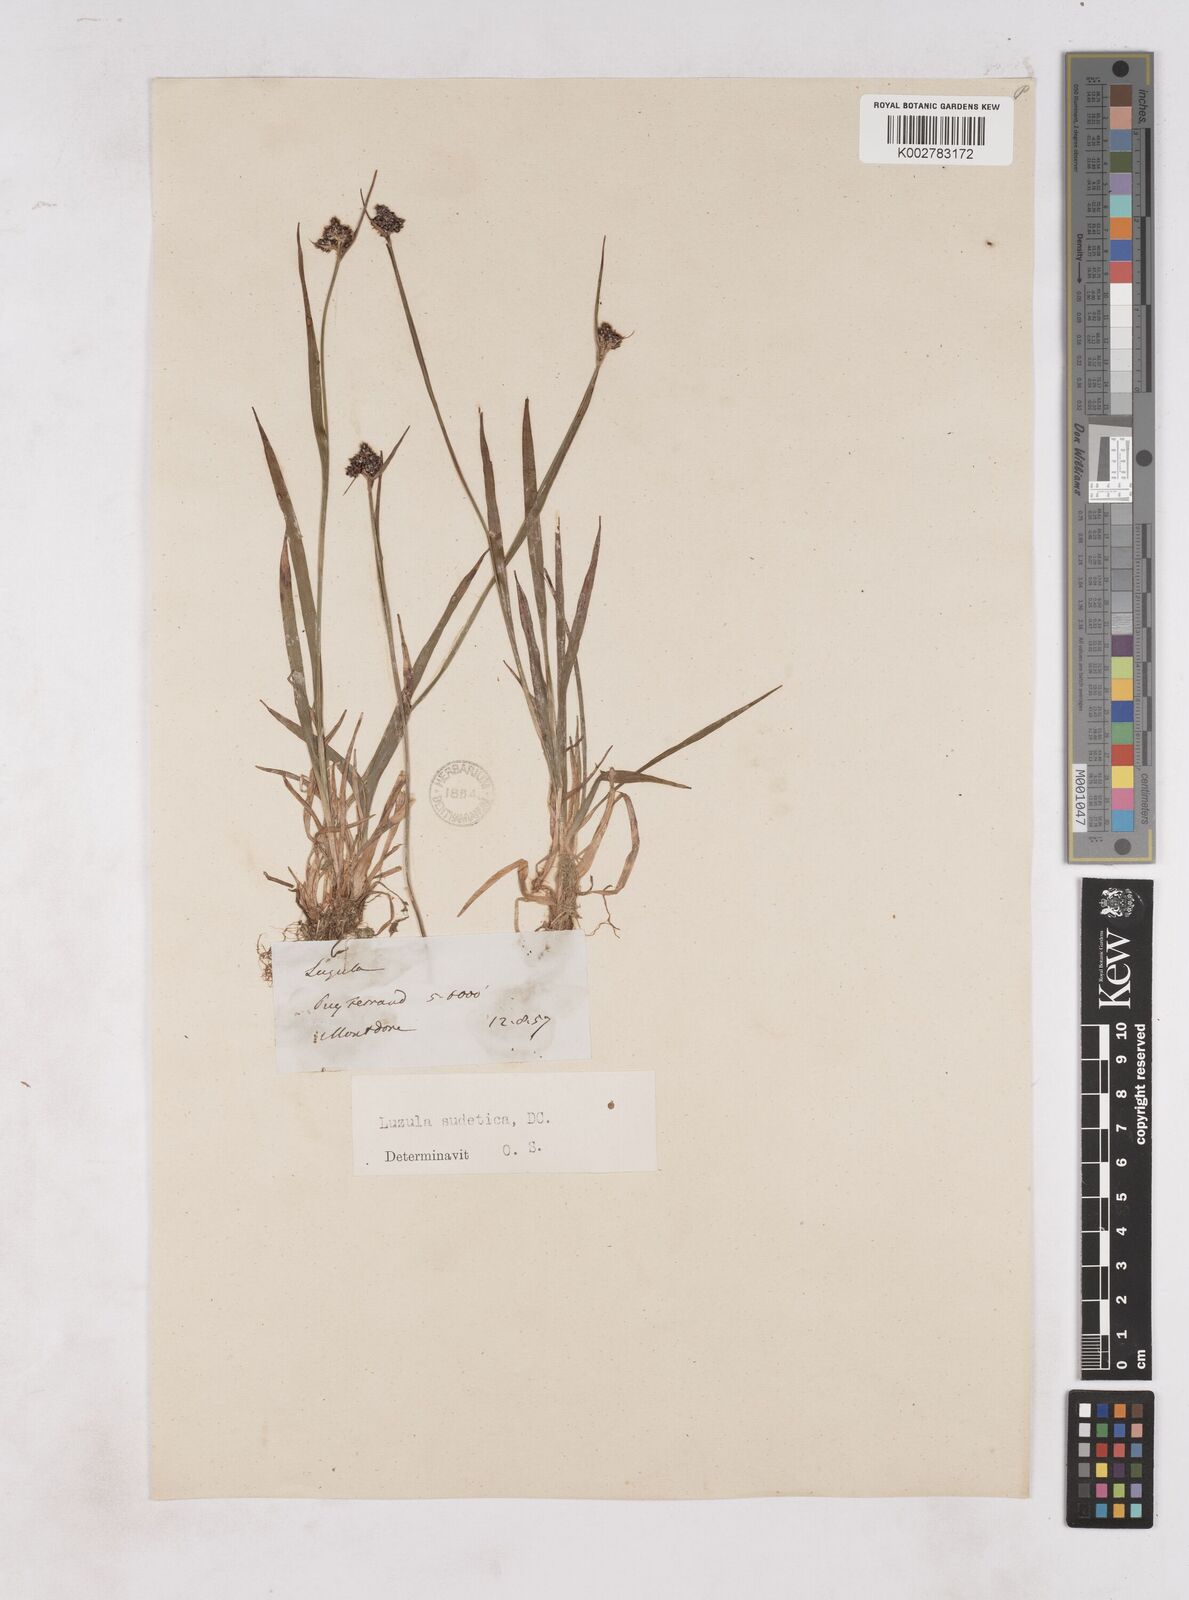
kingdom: Plantae
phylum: Tracheophyta
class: Liliopsida
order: Poales
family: Juncaceae
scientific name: Juncaceae
